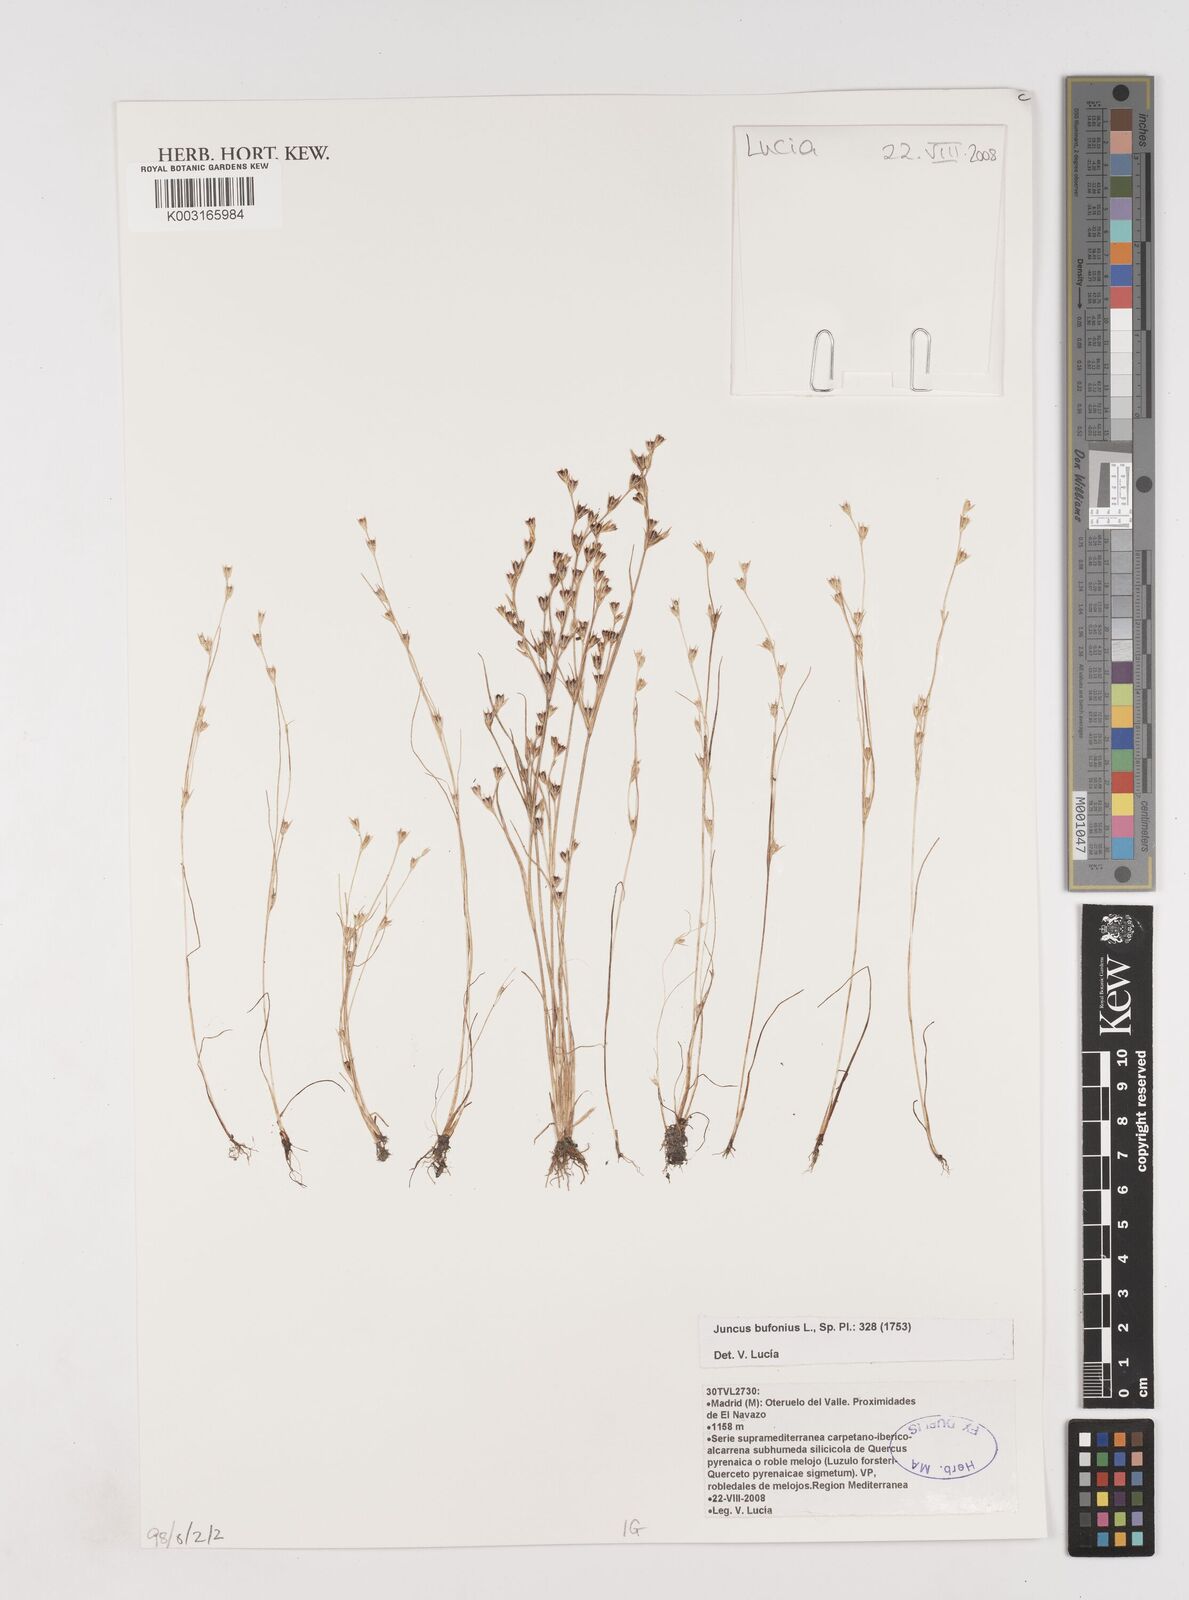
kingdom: Plantae
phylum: Tracheophyta
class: Liliopsida
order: Poales
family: Juncaceae
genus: Juncus
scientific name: Juncus bufonius
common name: Toad rush
